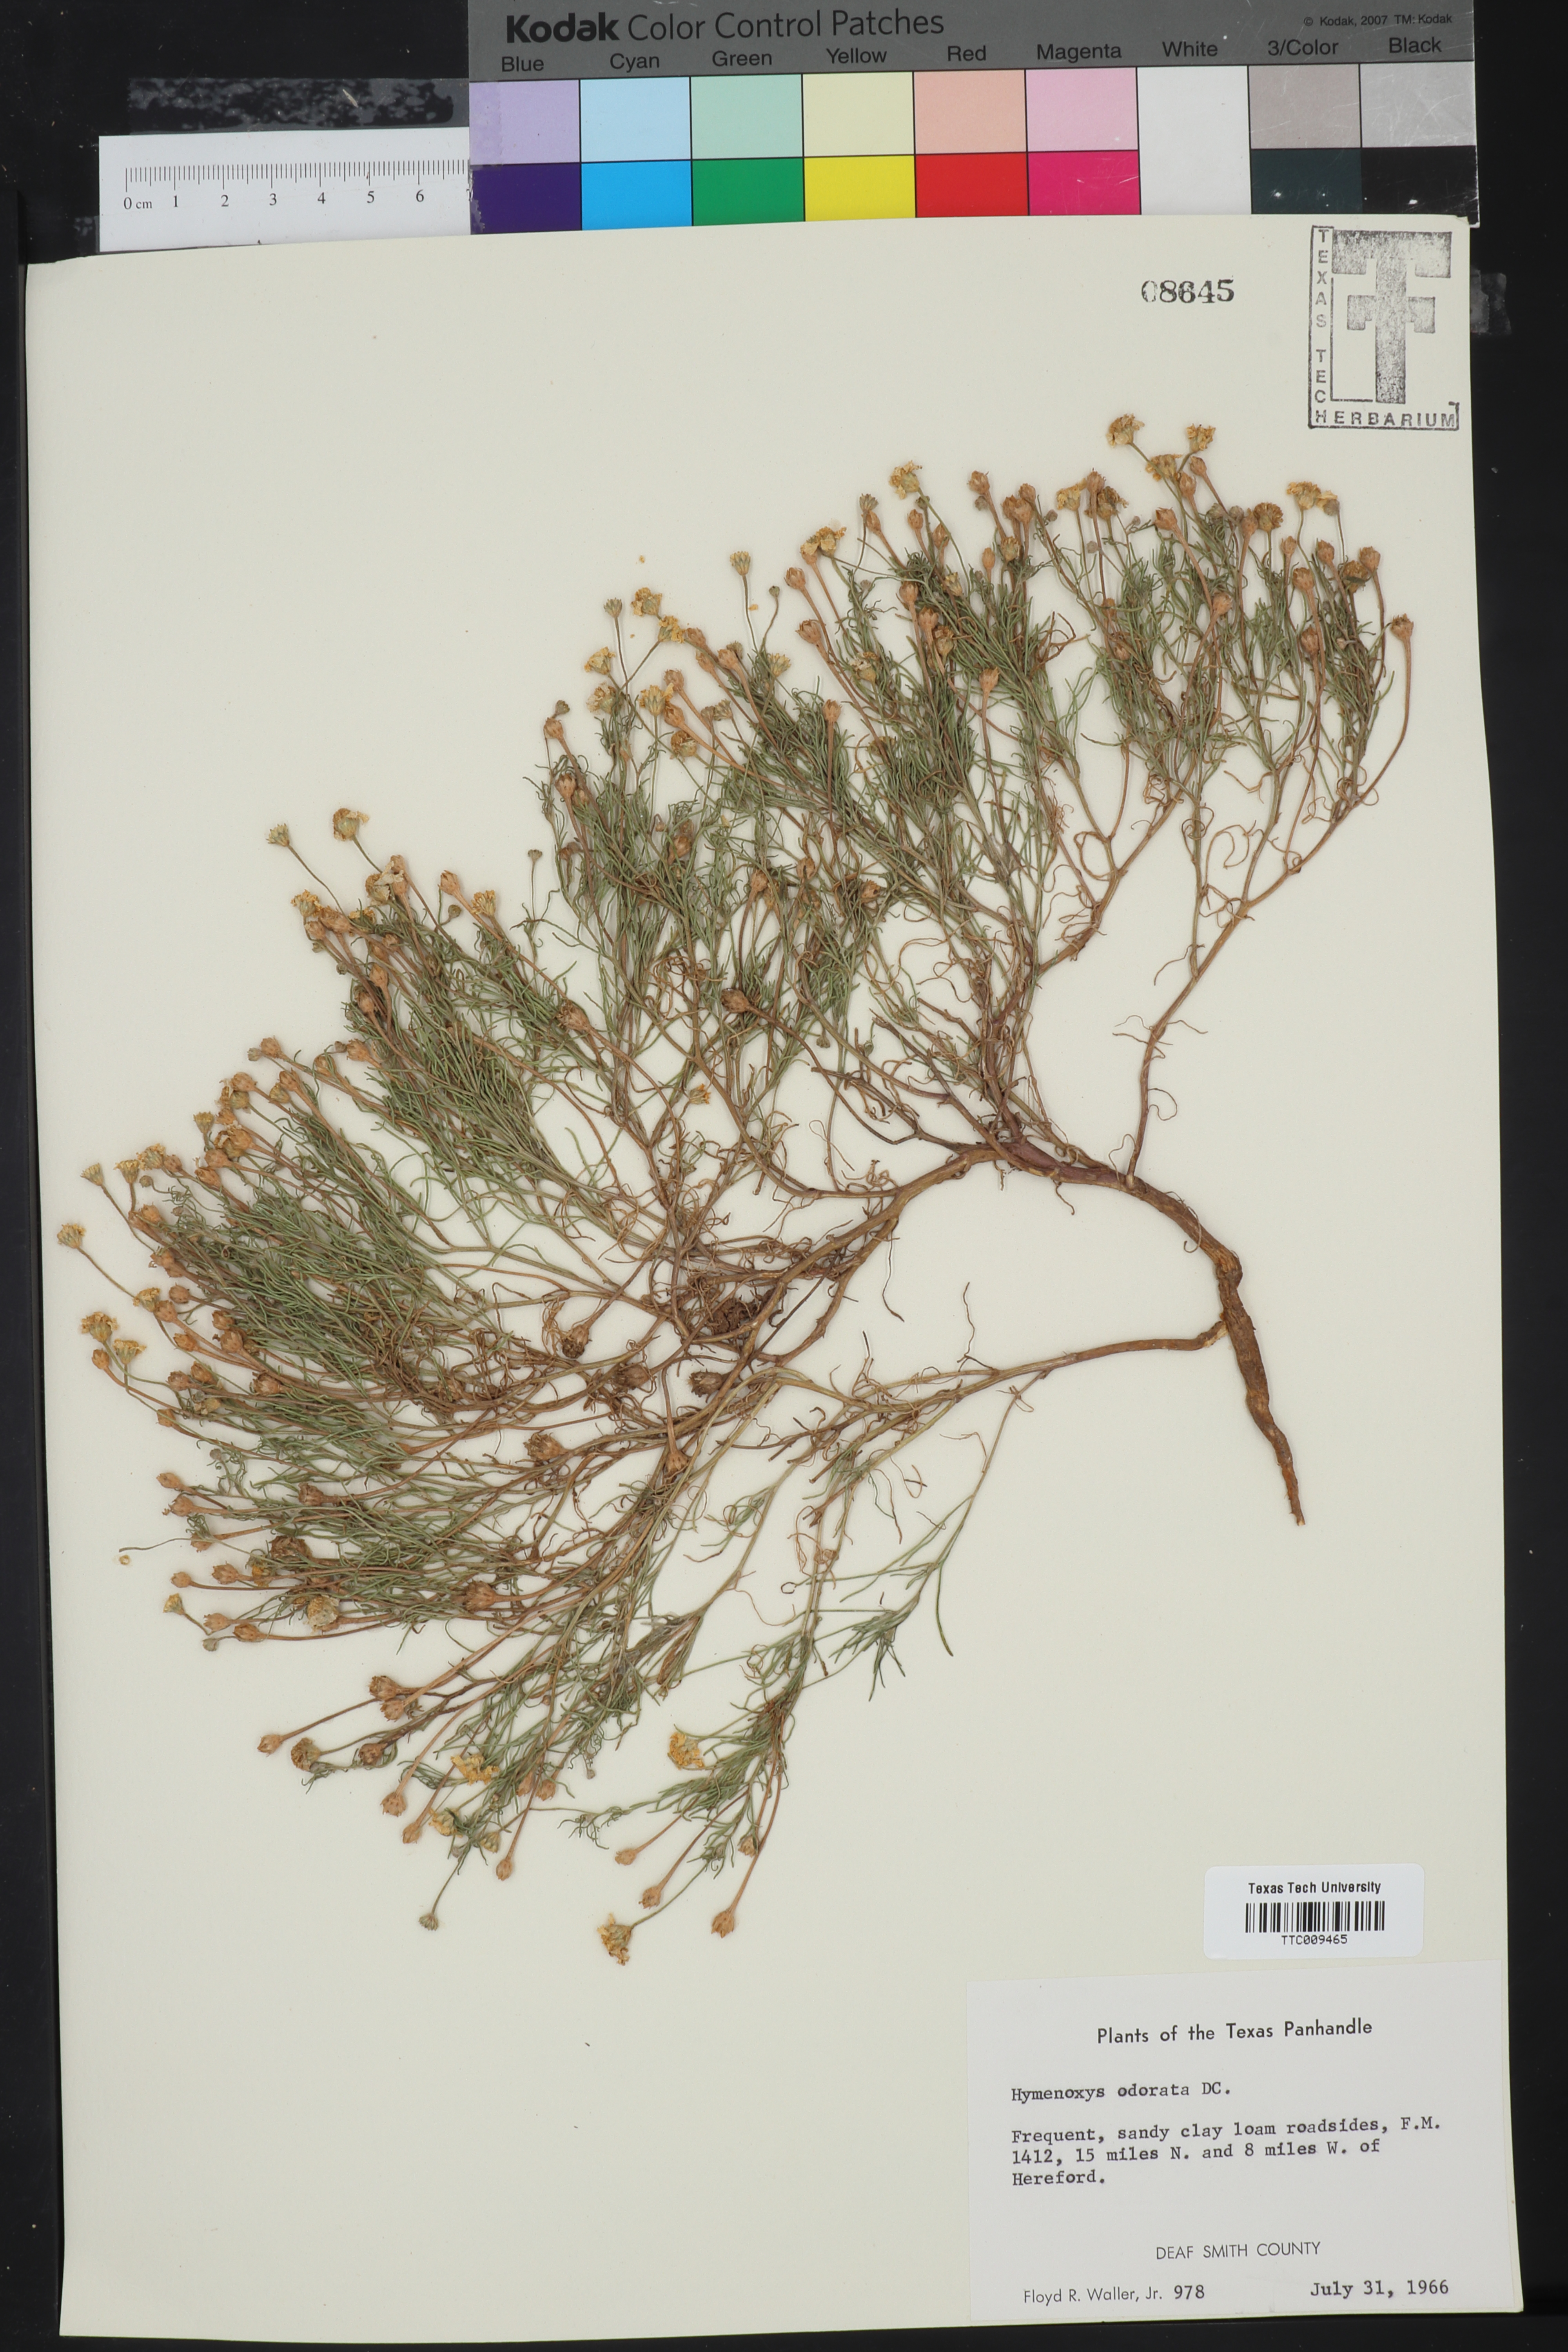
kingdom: Plantae
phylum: Tracheophyta
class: Magnoliopsida
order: Asterales
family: Asteraceae
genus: Hymenoxys
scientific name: Hymenoxys odorata
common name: Bitter rubberweed
